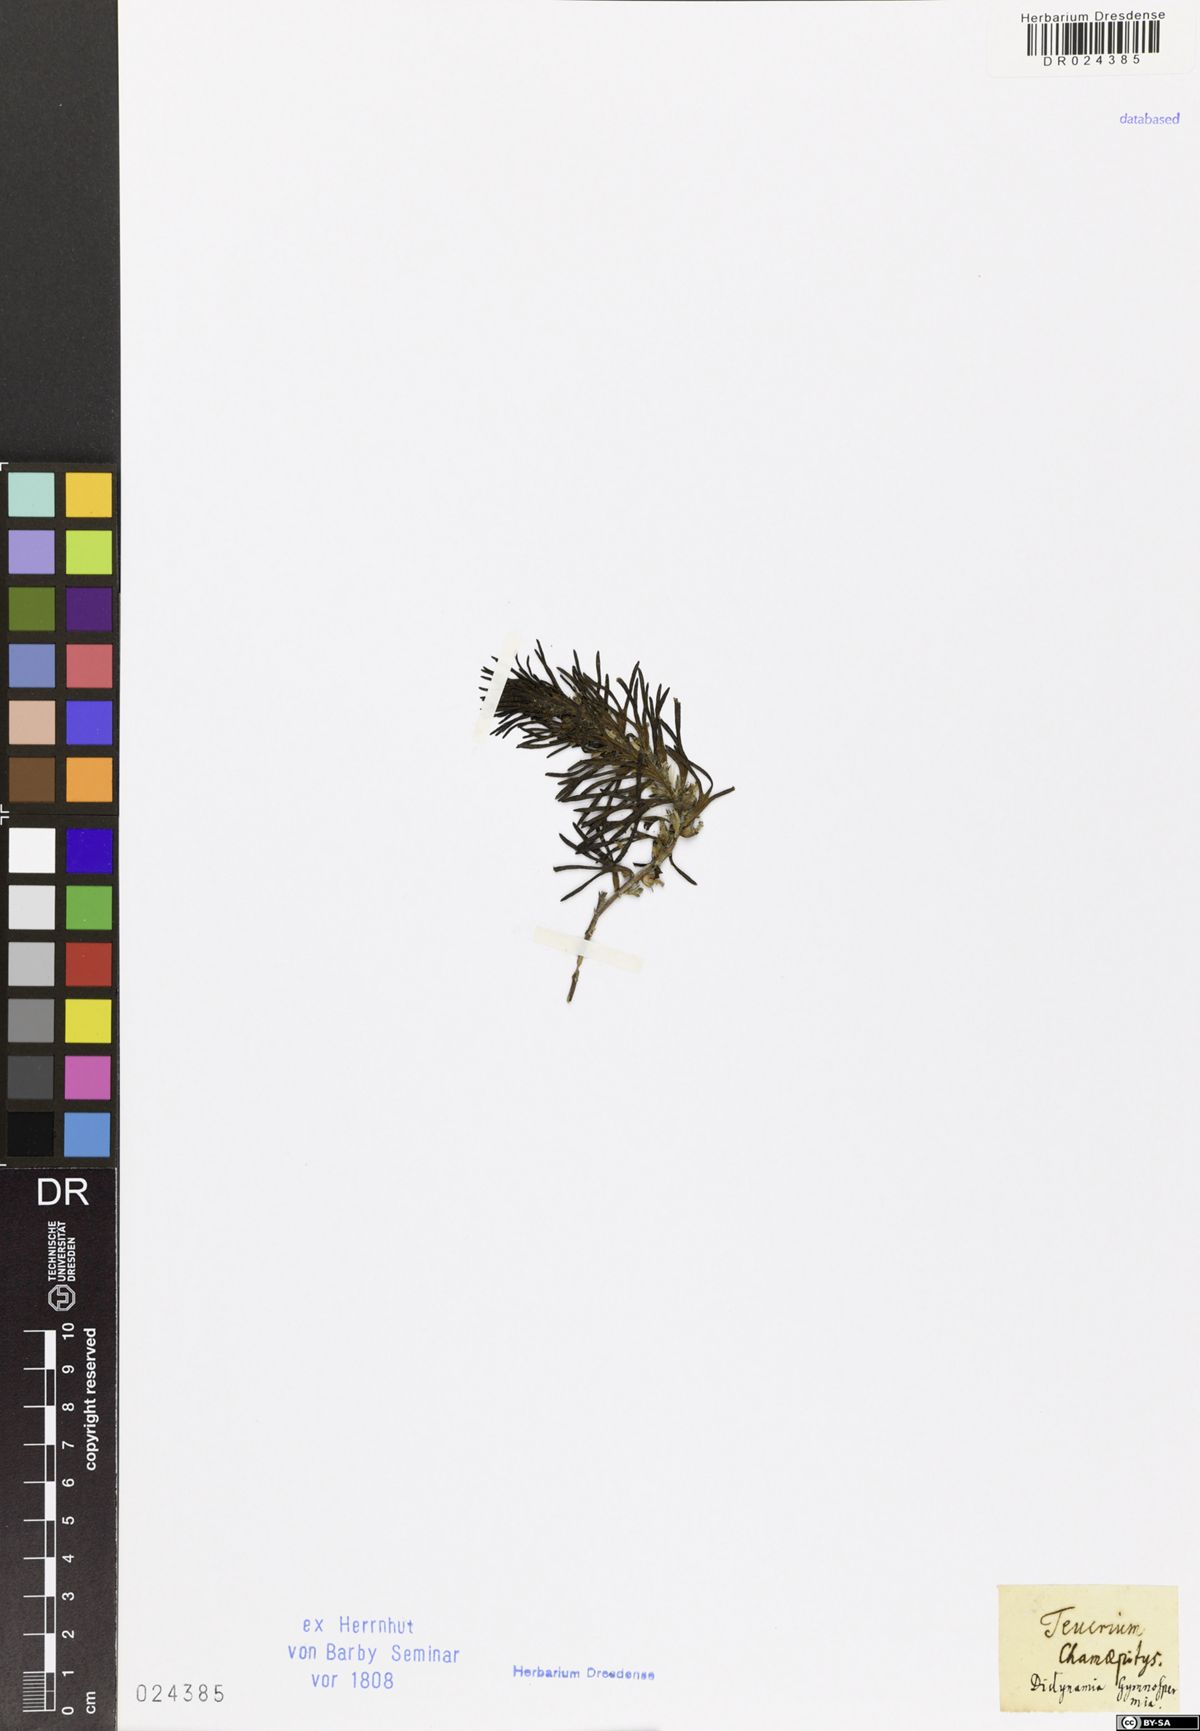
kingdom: Plantae
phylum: Tracheophyta
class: Magnoliopsida
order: Lamiales
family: Lamiaceae
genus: Ajuga
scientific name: Ajuga chamaepitys
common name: Ground-pine
